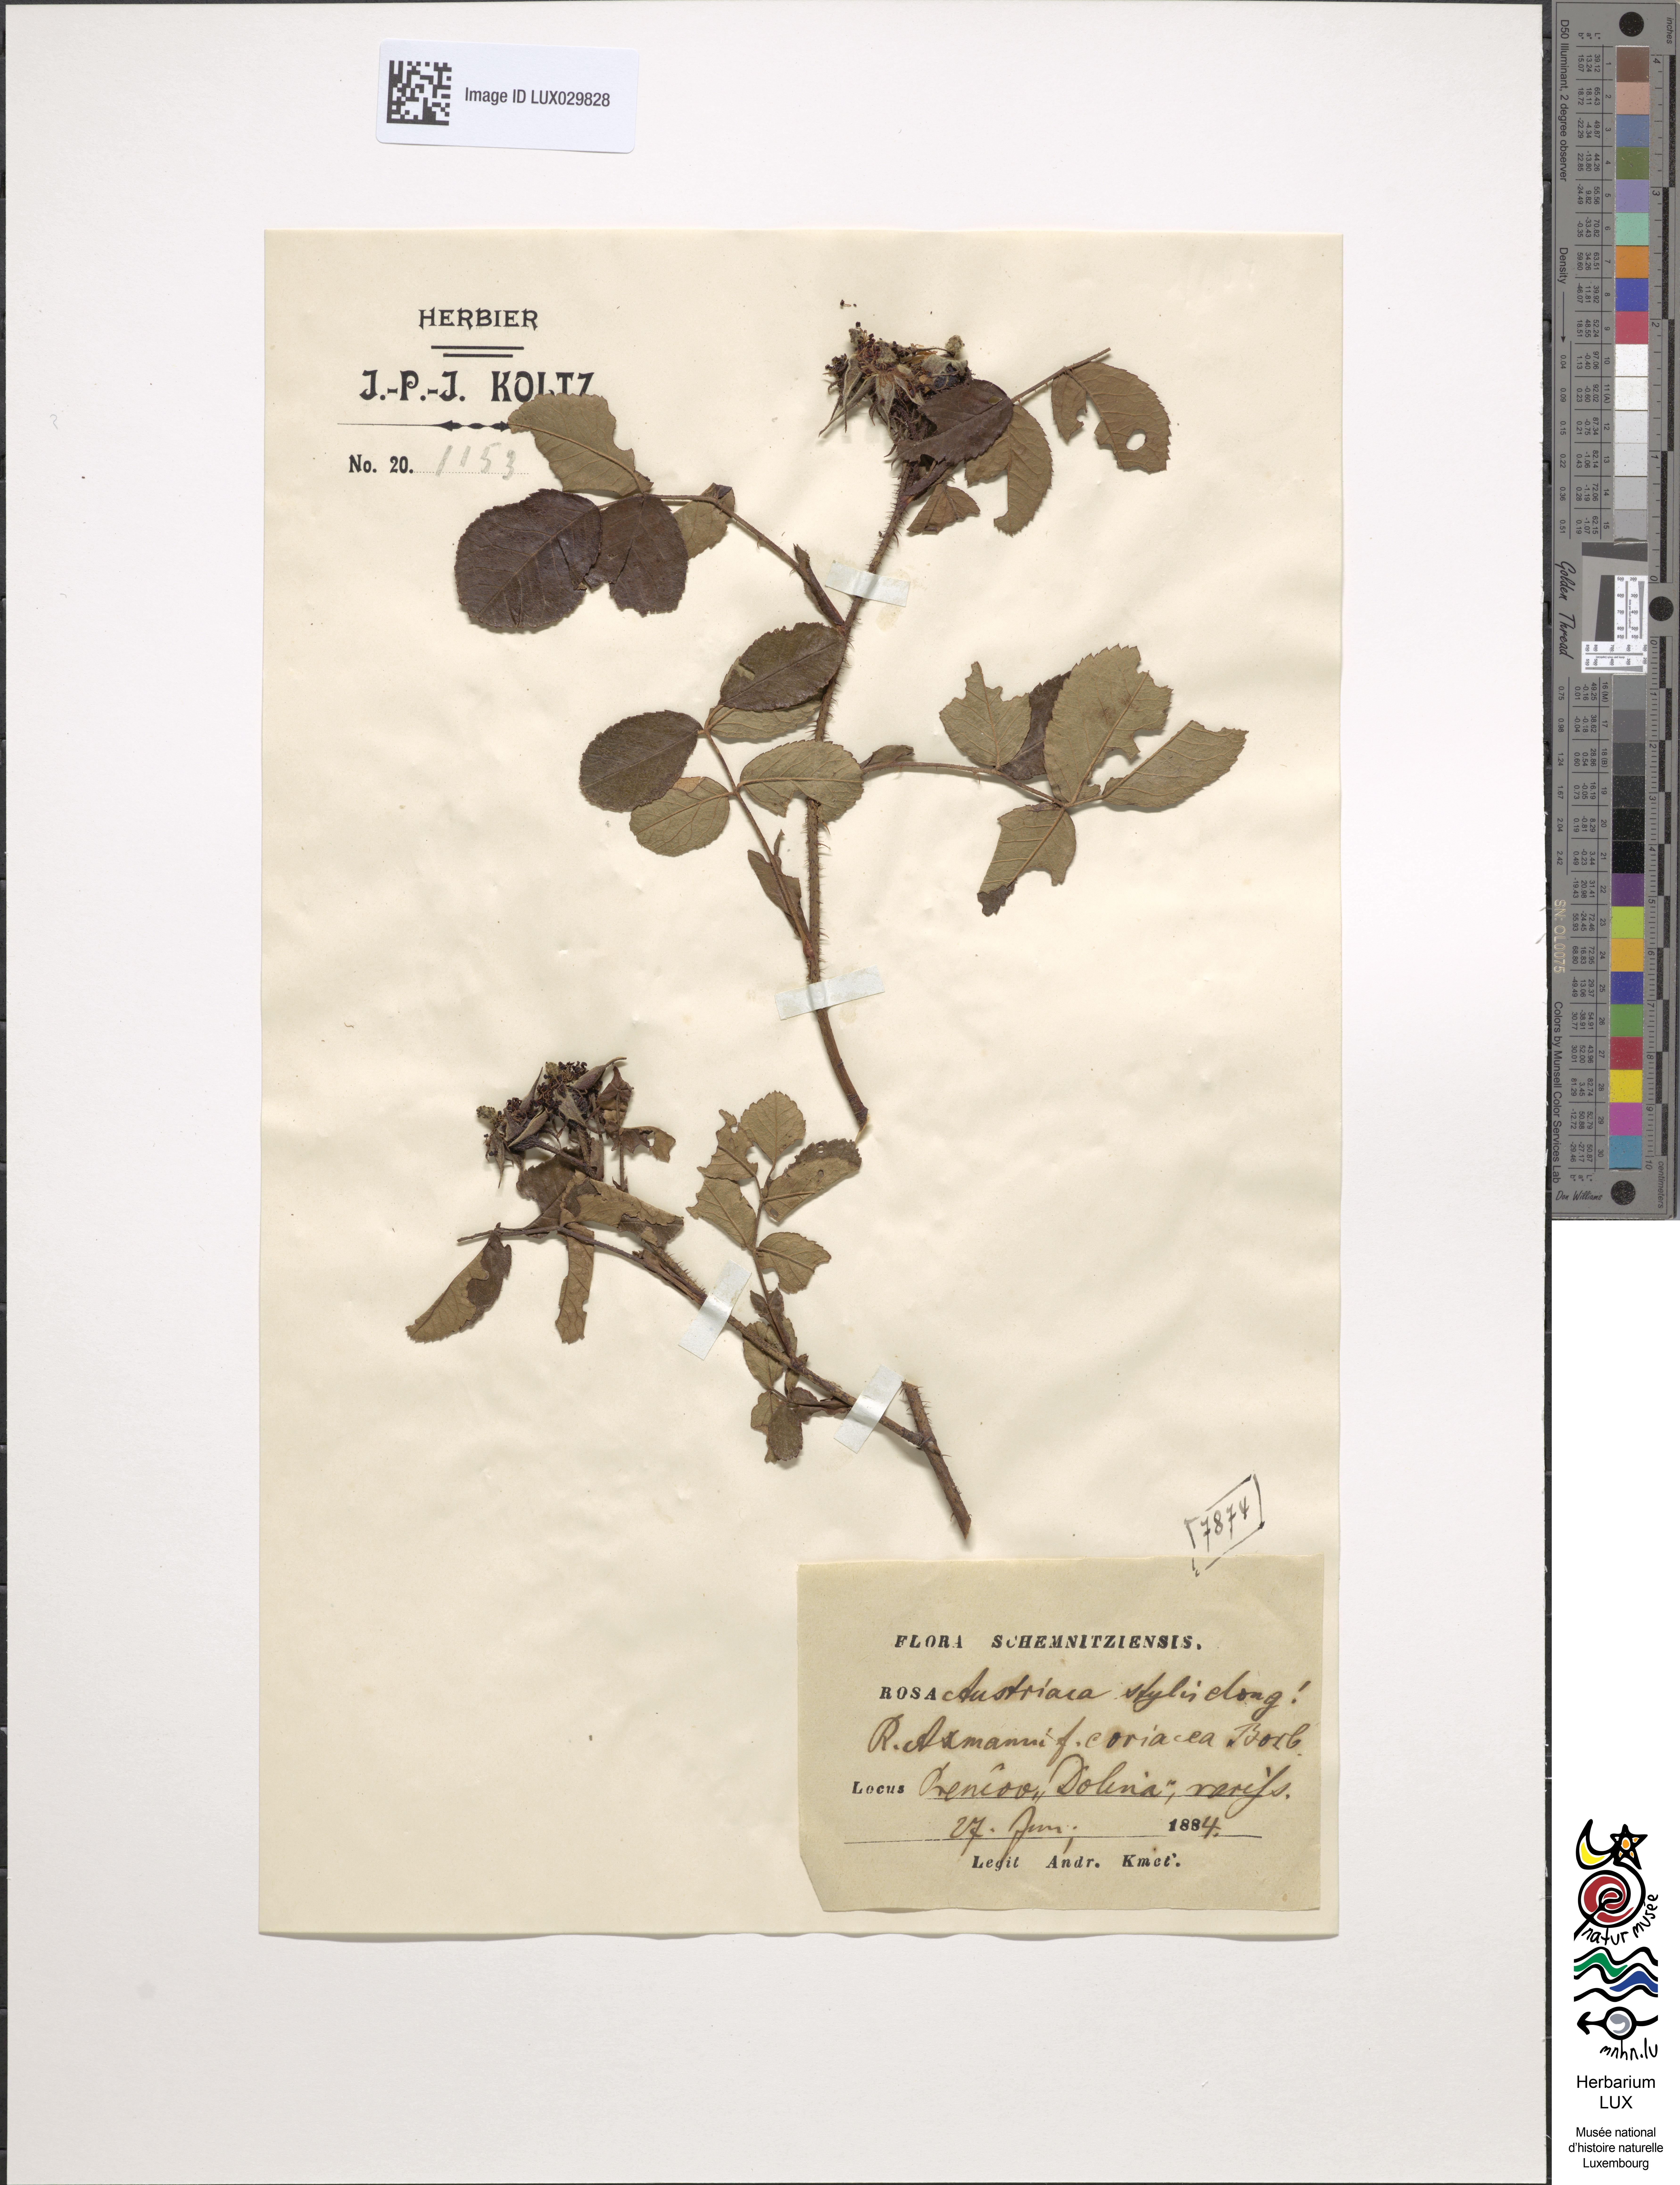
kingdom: Plantae
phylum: Tracheophyta
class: Magnoliopsida
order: Rosales
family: Rosaceae
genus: Rosa
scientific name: Rosa gallica
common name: French rose
